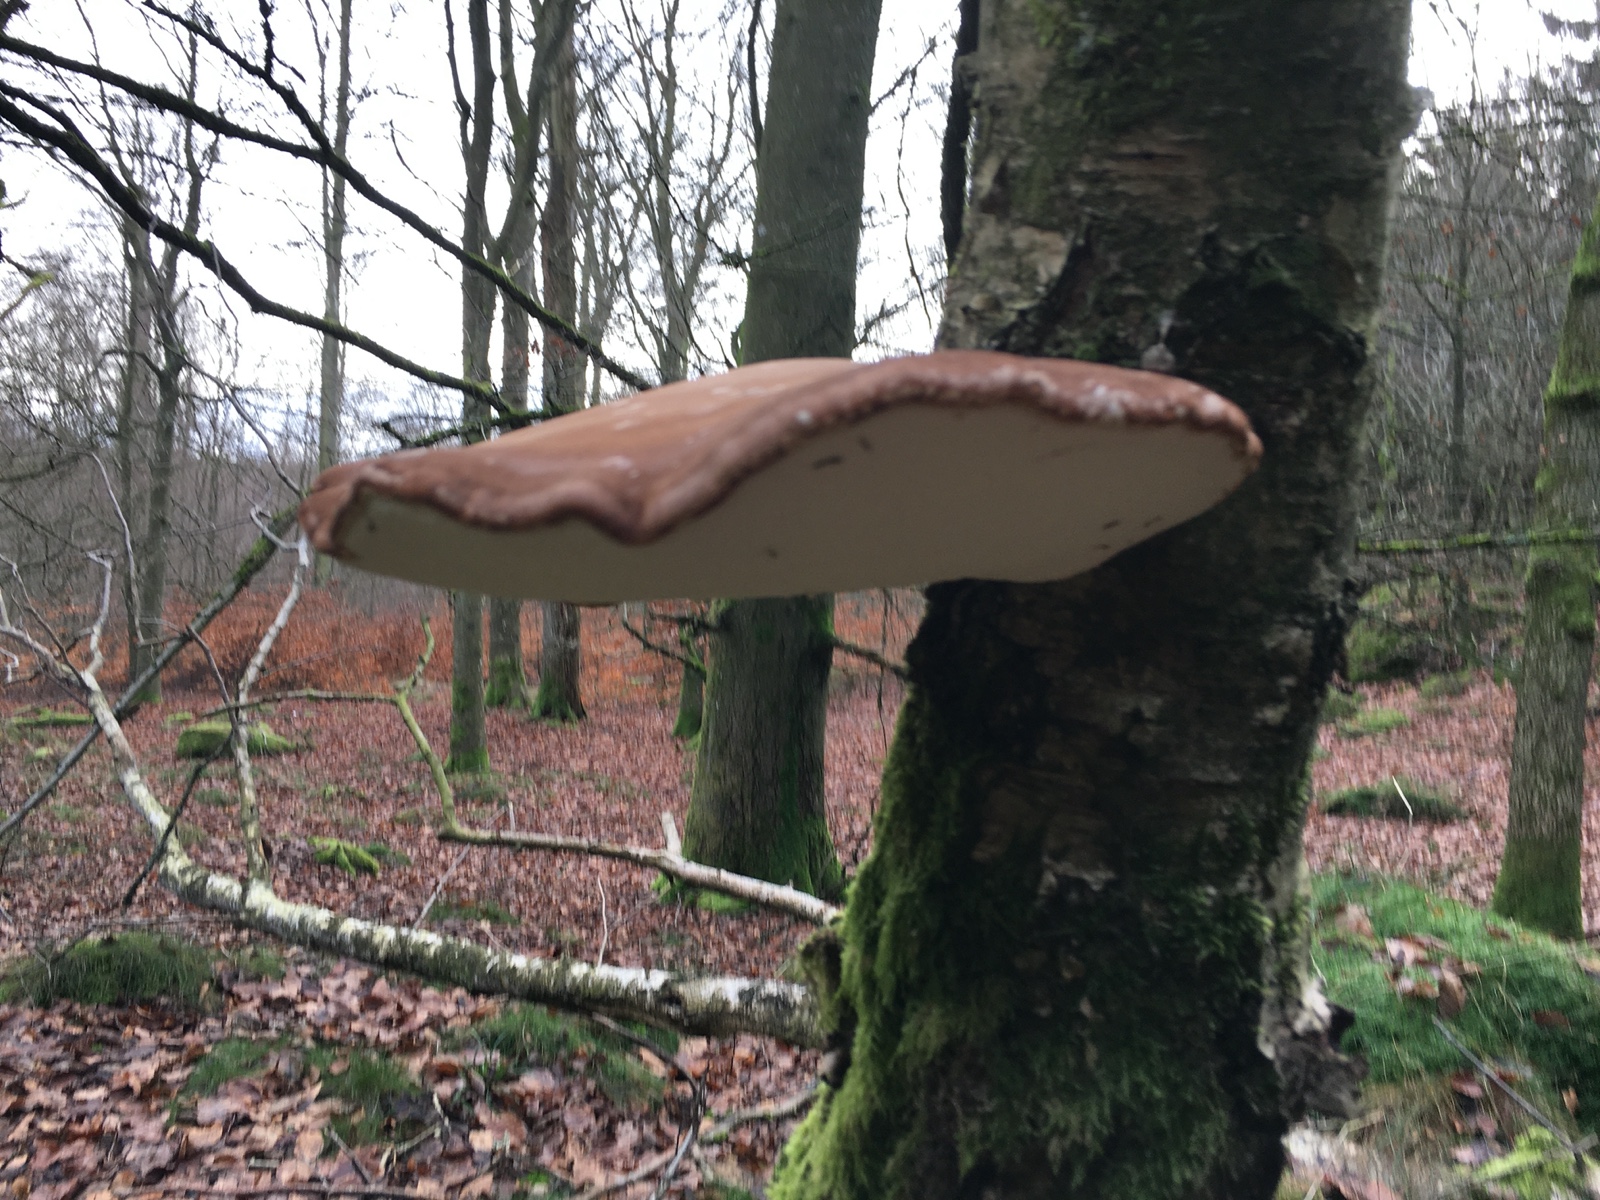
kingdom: Fungi
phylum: Basidiomycota
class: Agaricomycetes
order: Polyporales
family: Fomitopsidaceae
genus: Fomitopsis
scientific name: Fomitopsis betulina
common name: birkeporesvamp
